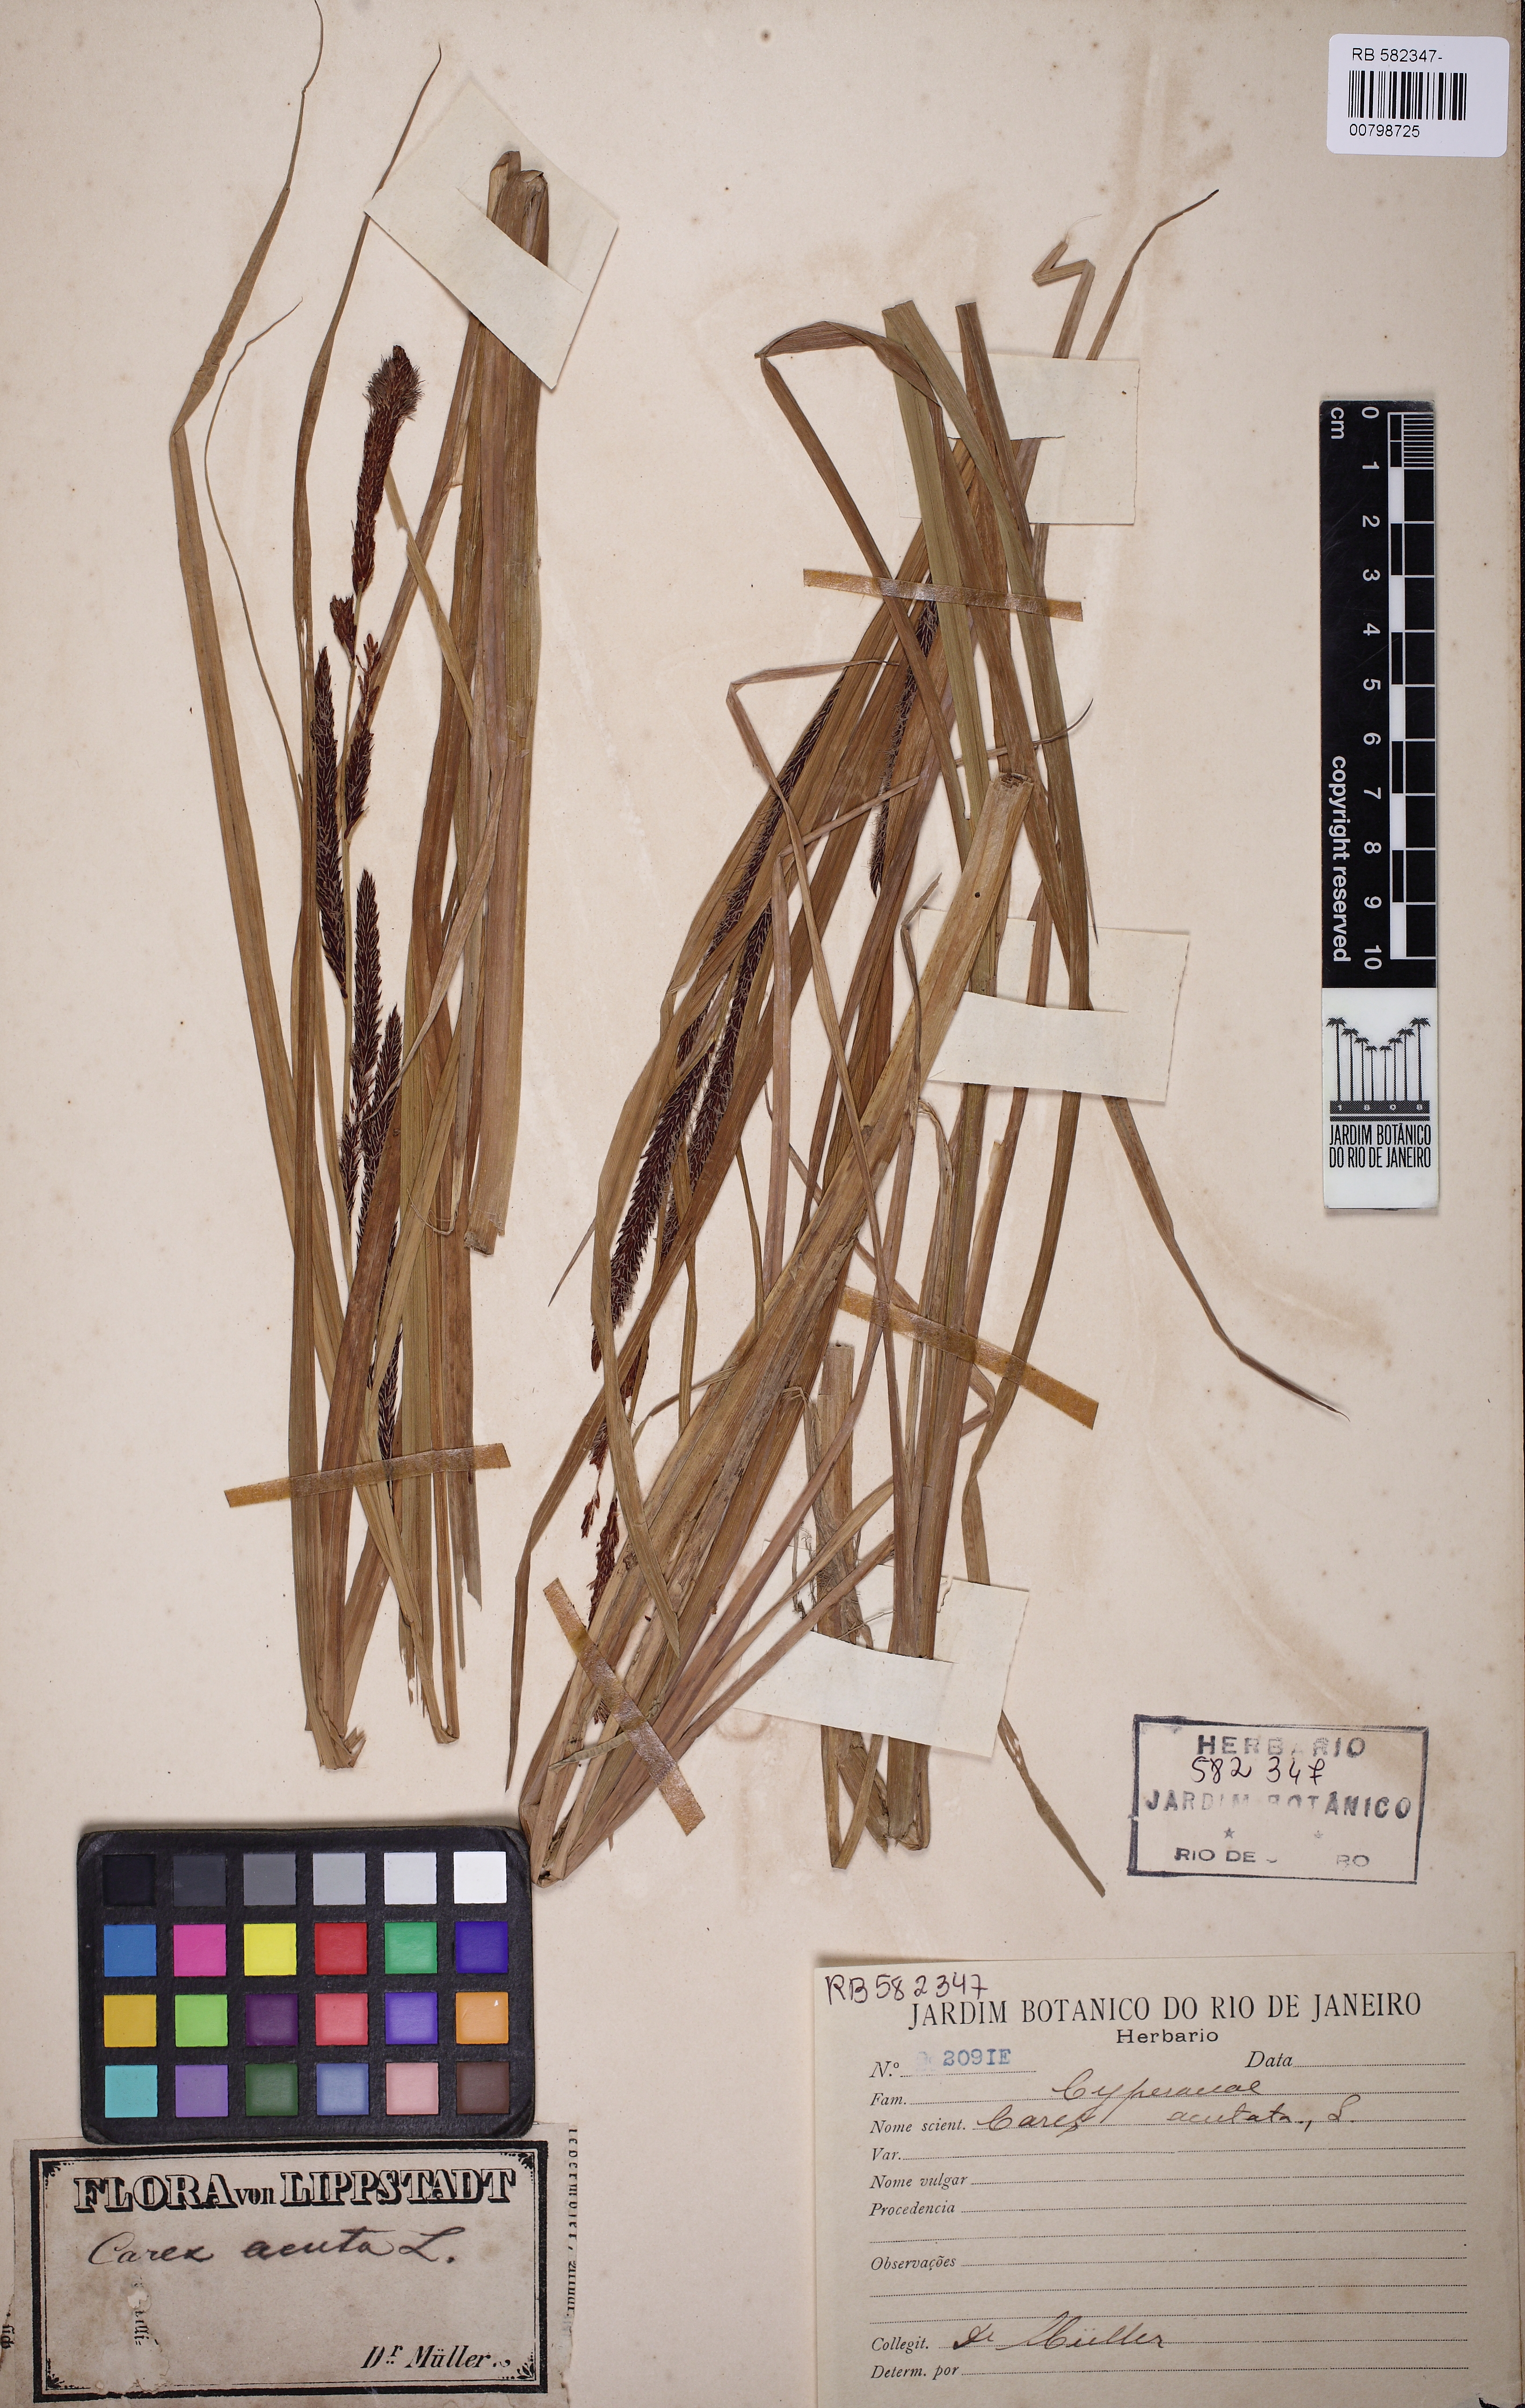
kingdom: Plantae
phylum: Tracheophyta
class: Liliopsida
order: Poales
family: Cyperaceae
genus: Carex
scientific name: Carex acuta
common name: Slender tufted-sedge
